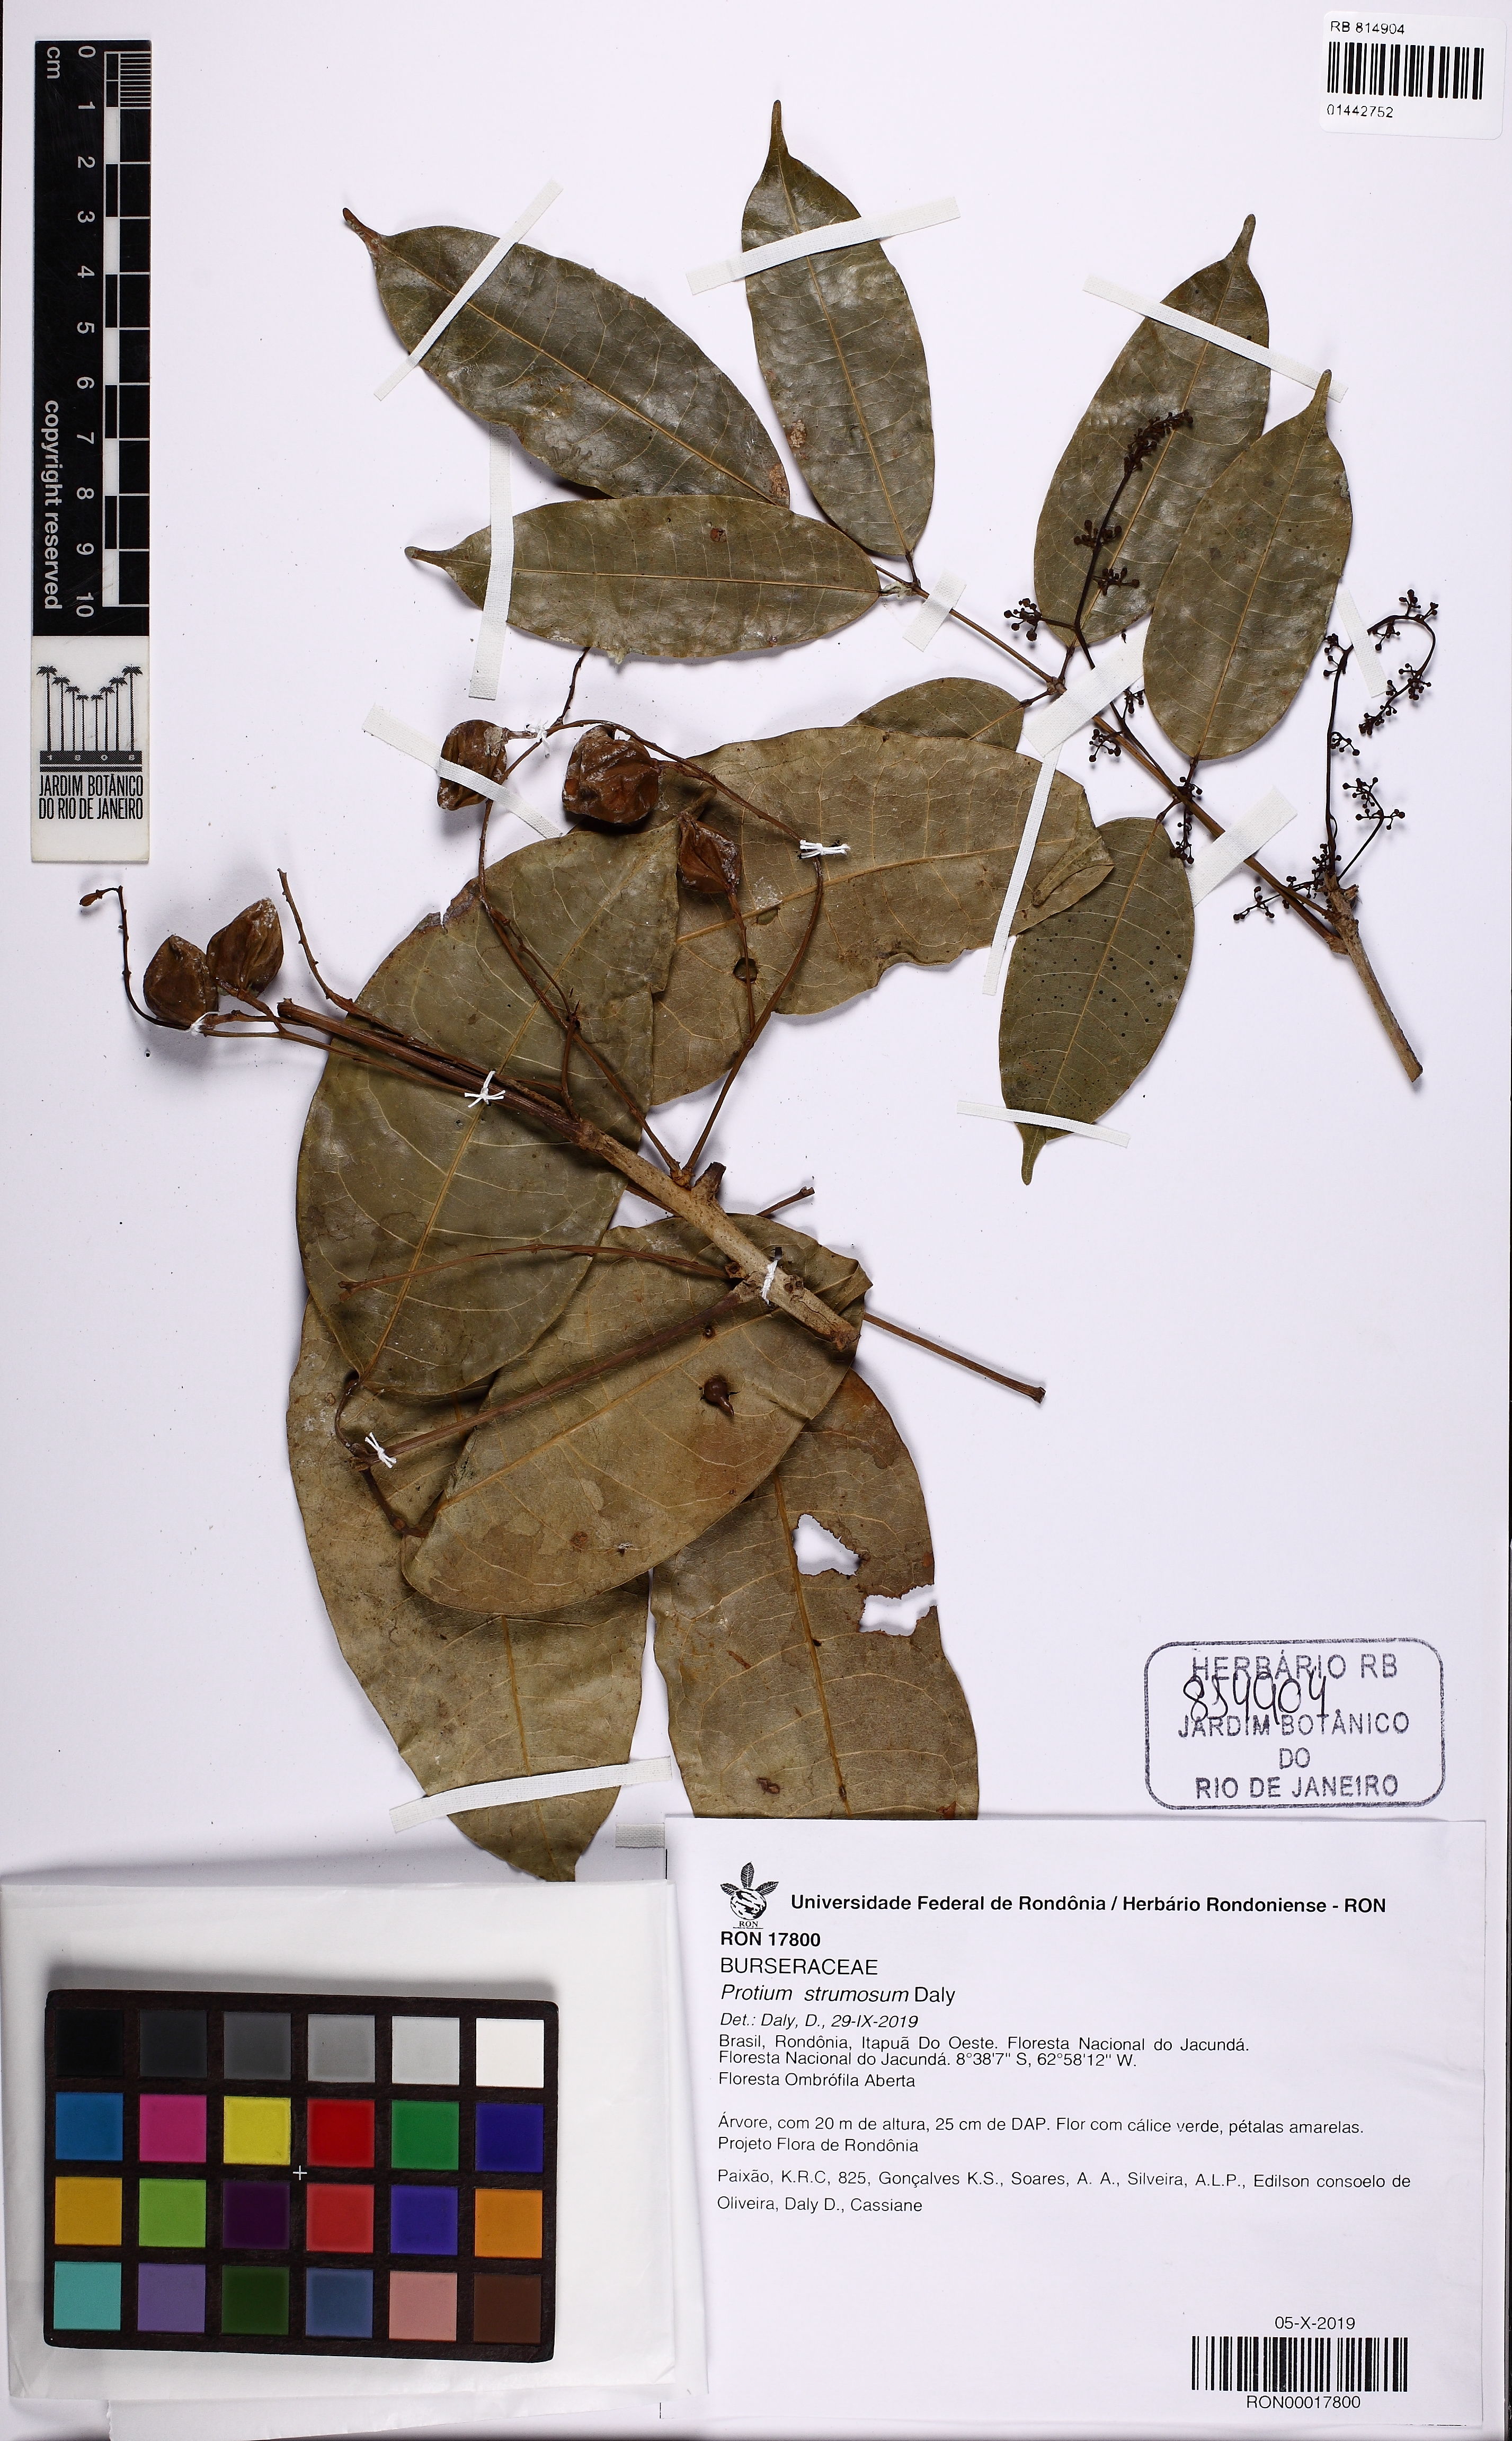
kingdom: Plantae
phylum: Tracheophyta
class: Magnoliopsida
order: Sapindales
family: Burseraceae
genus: Protium
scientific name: Protium strumosum
